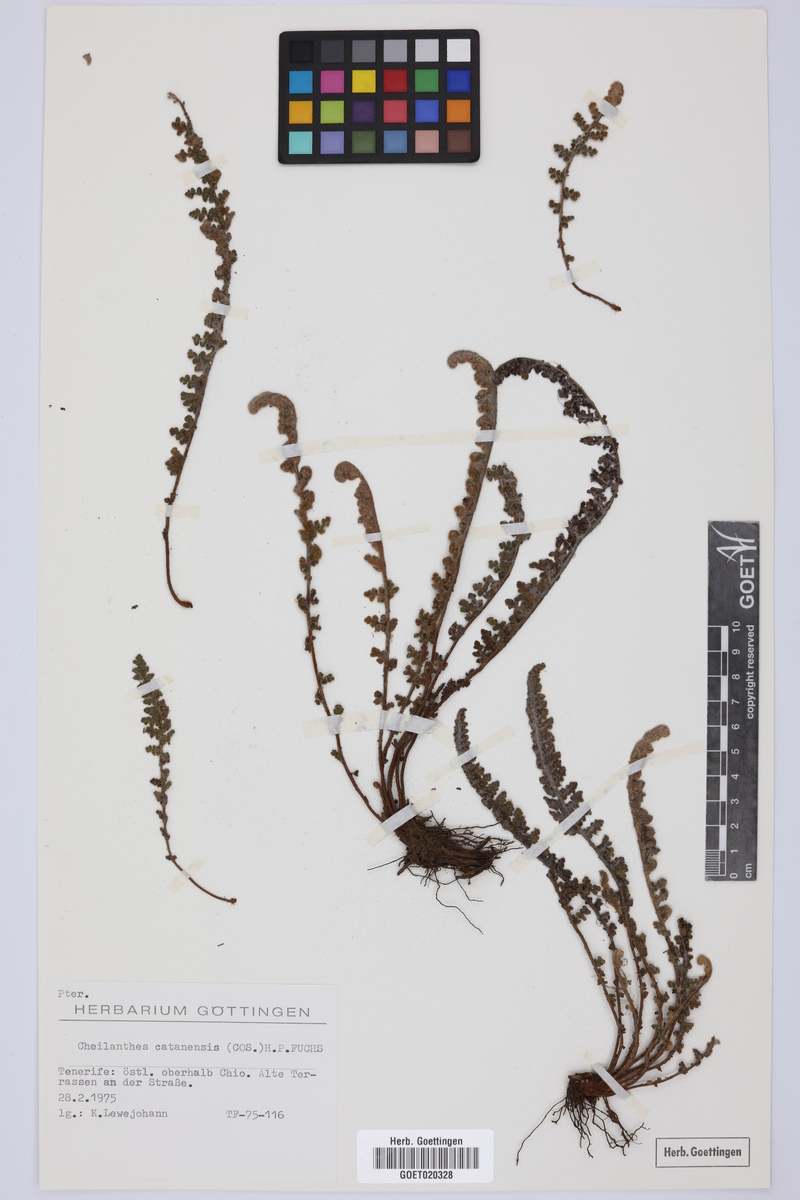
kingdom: Plantae
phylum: Tracheophyta
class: Polypodiopsida
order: Polypodiales
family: Pteridaceae
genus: Cosentinia
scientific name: Cosentinia vellea
